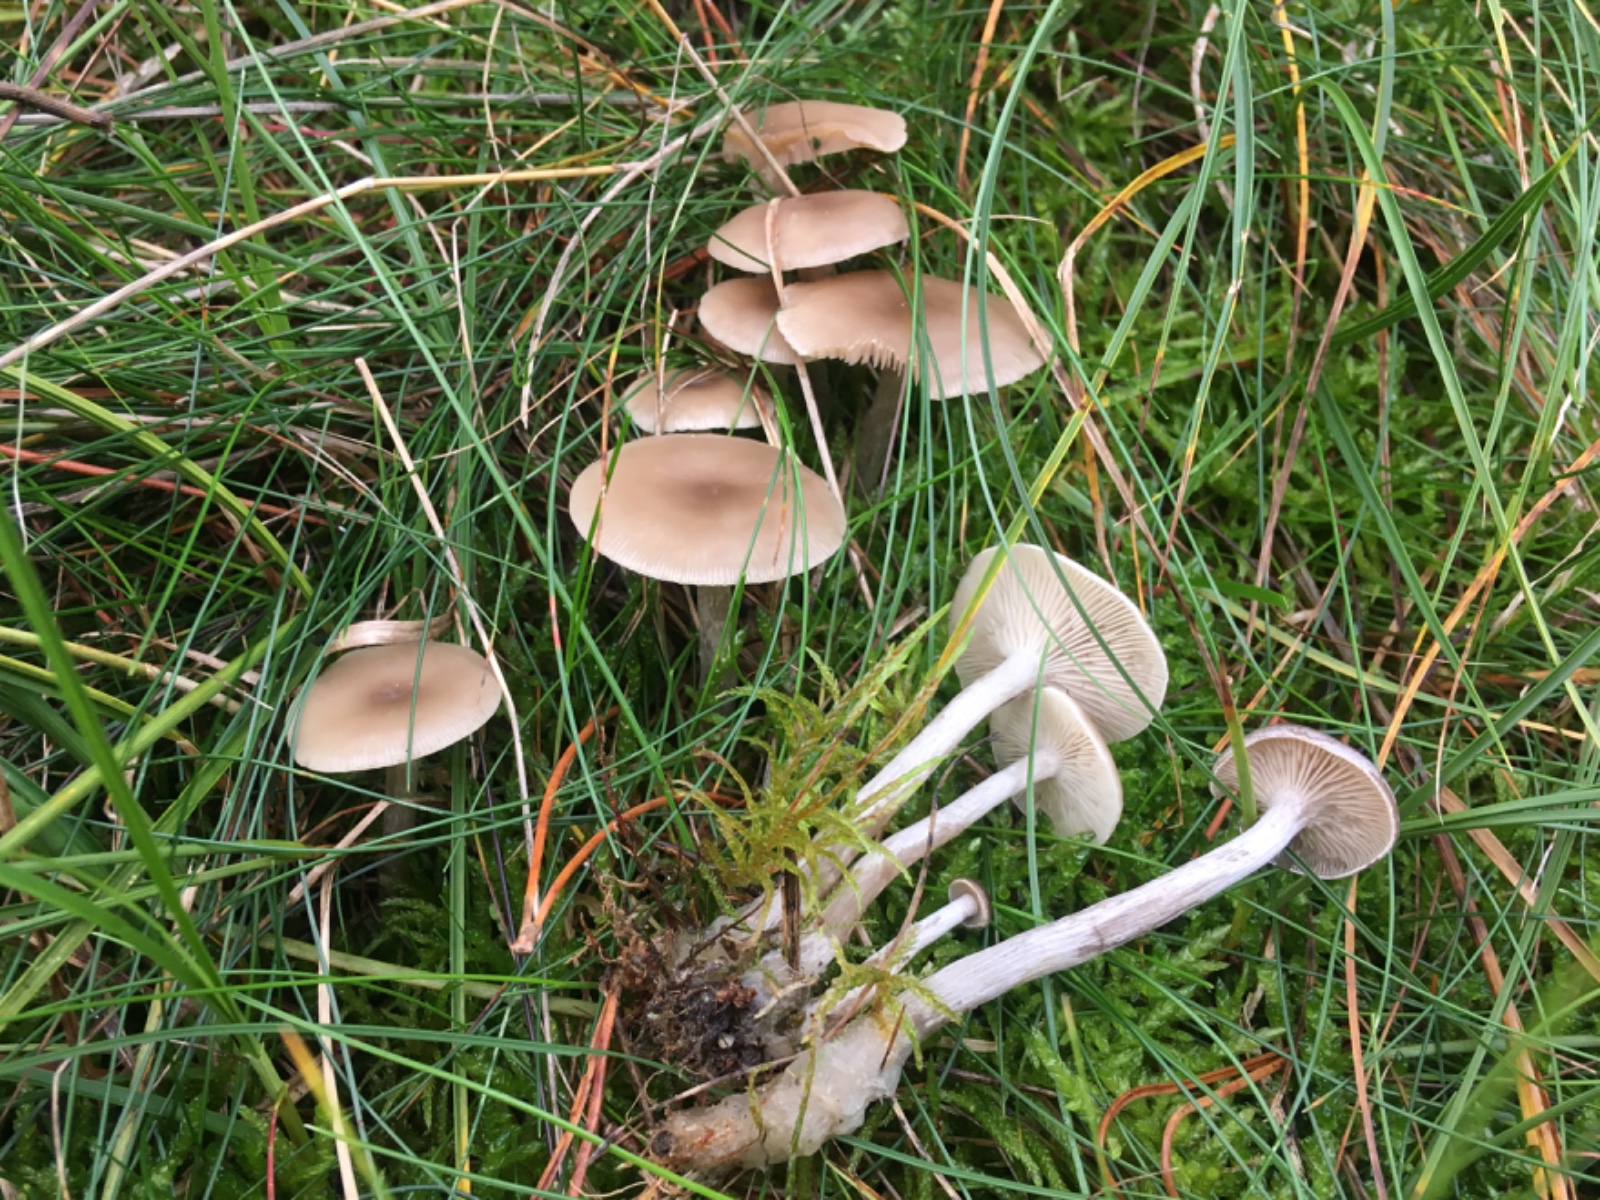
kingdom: Fungi
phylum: Basidiomycota
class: Agaricomycetes
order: Agaricales
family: Tricholomataceae
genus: Clitocybe
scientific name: Clitocybe
